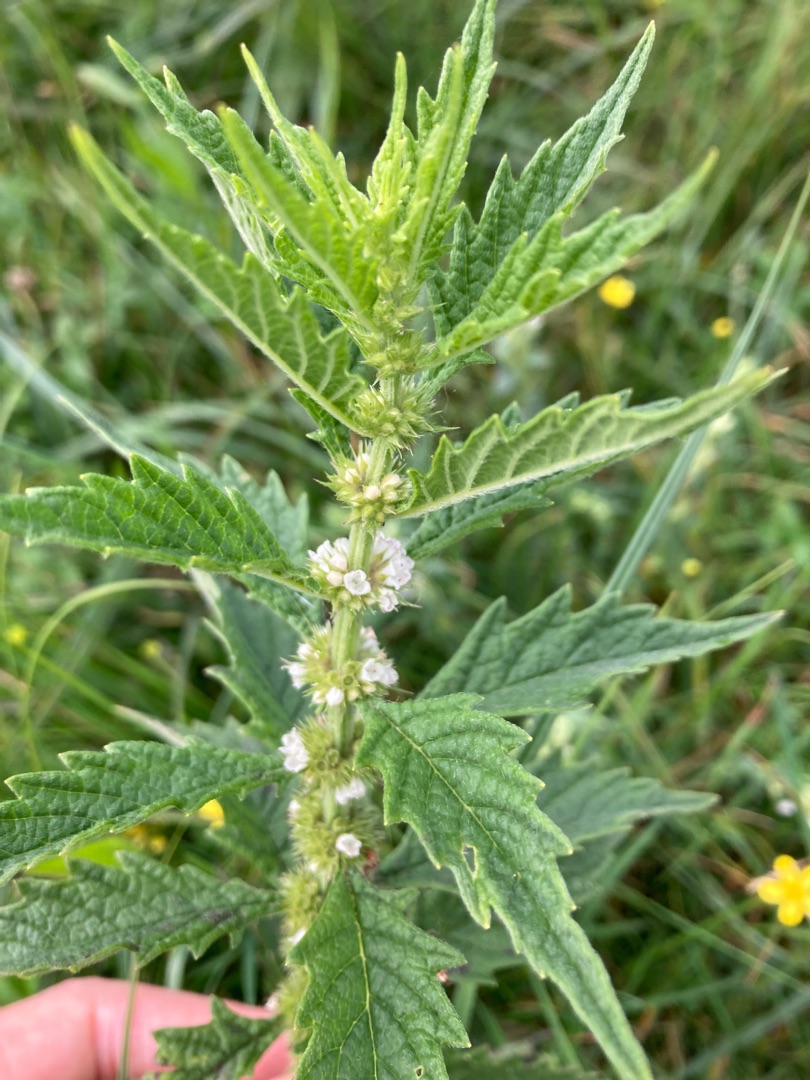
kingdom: Plantae
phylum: Tracheophyta
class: Magnoliopsida
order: Lamiales
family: Lamiaceae
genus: Lycopus
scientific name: Lycopus europaeus
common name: Sværtevæld
